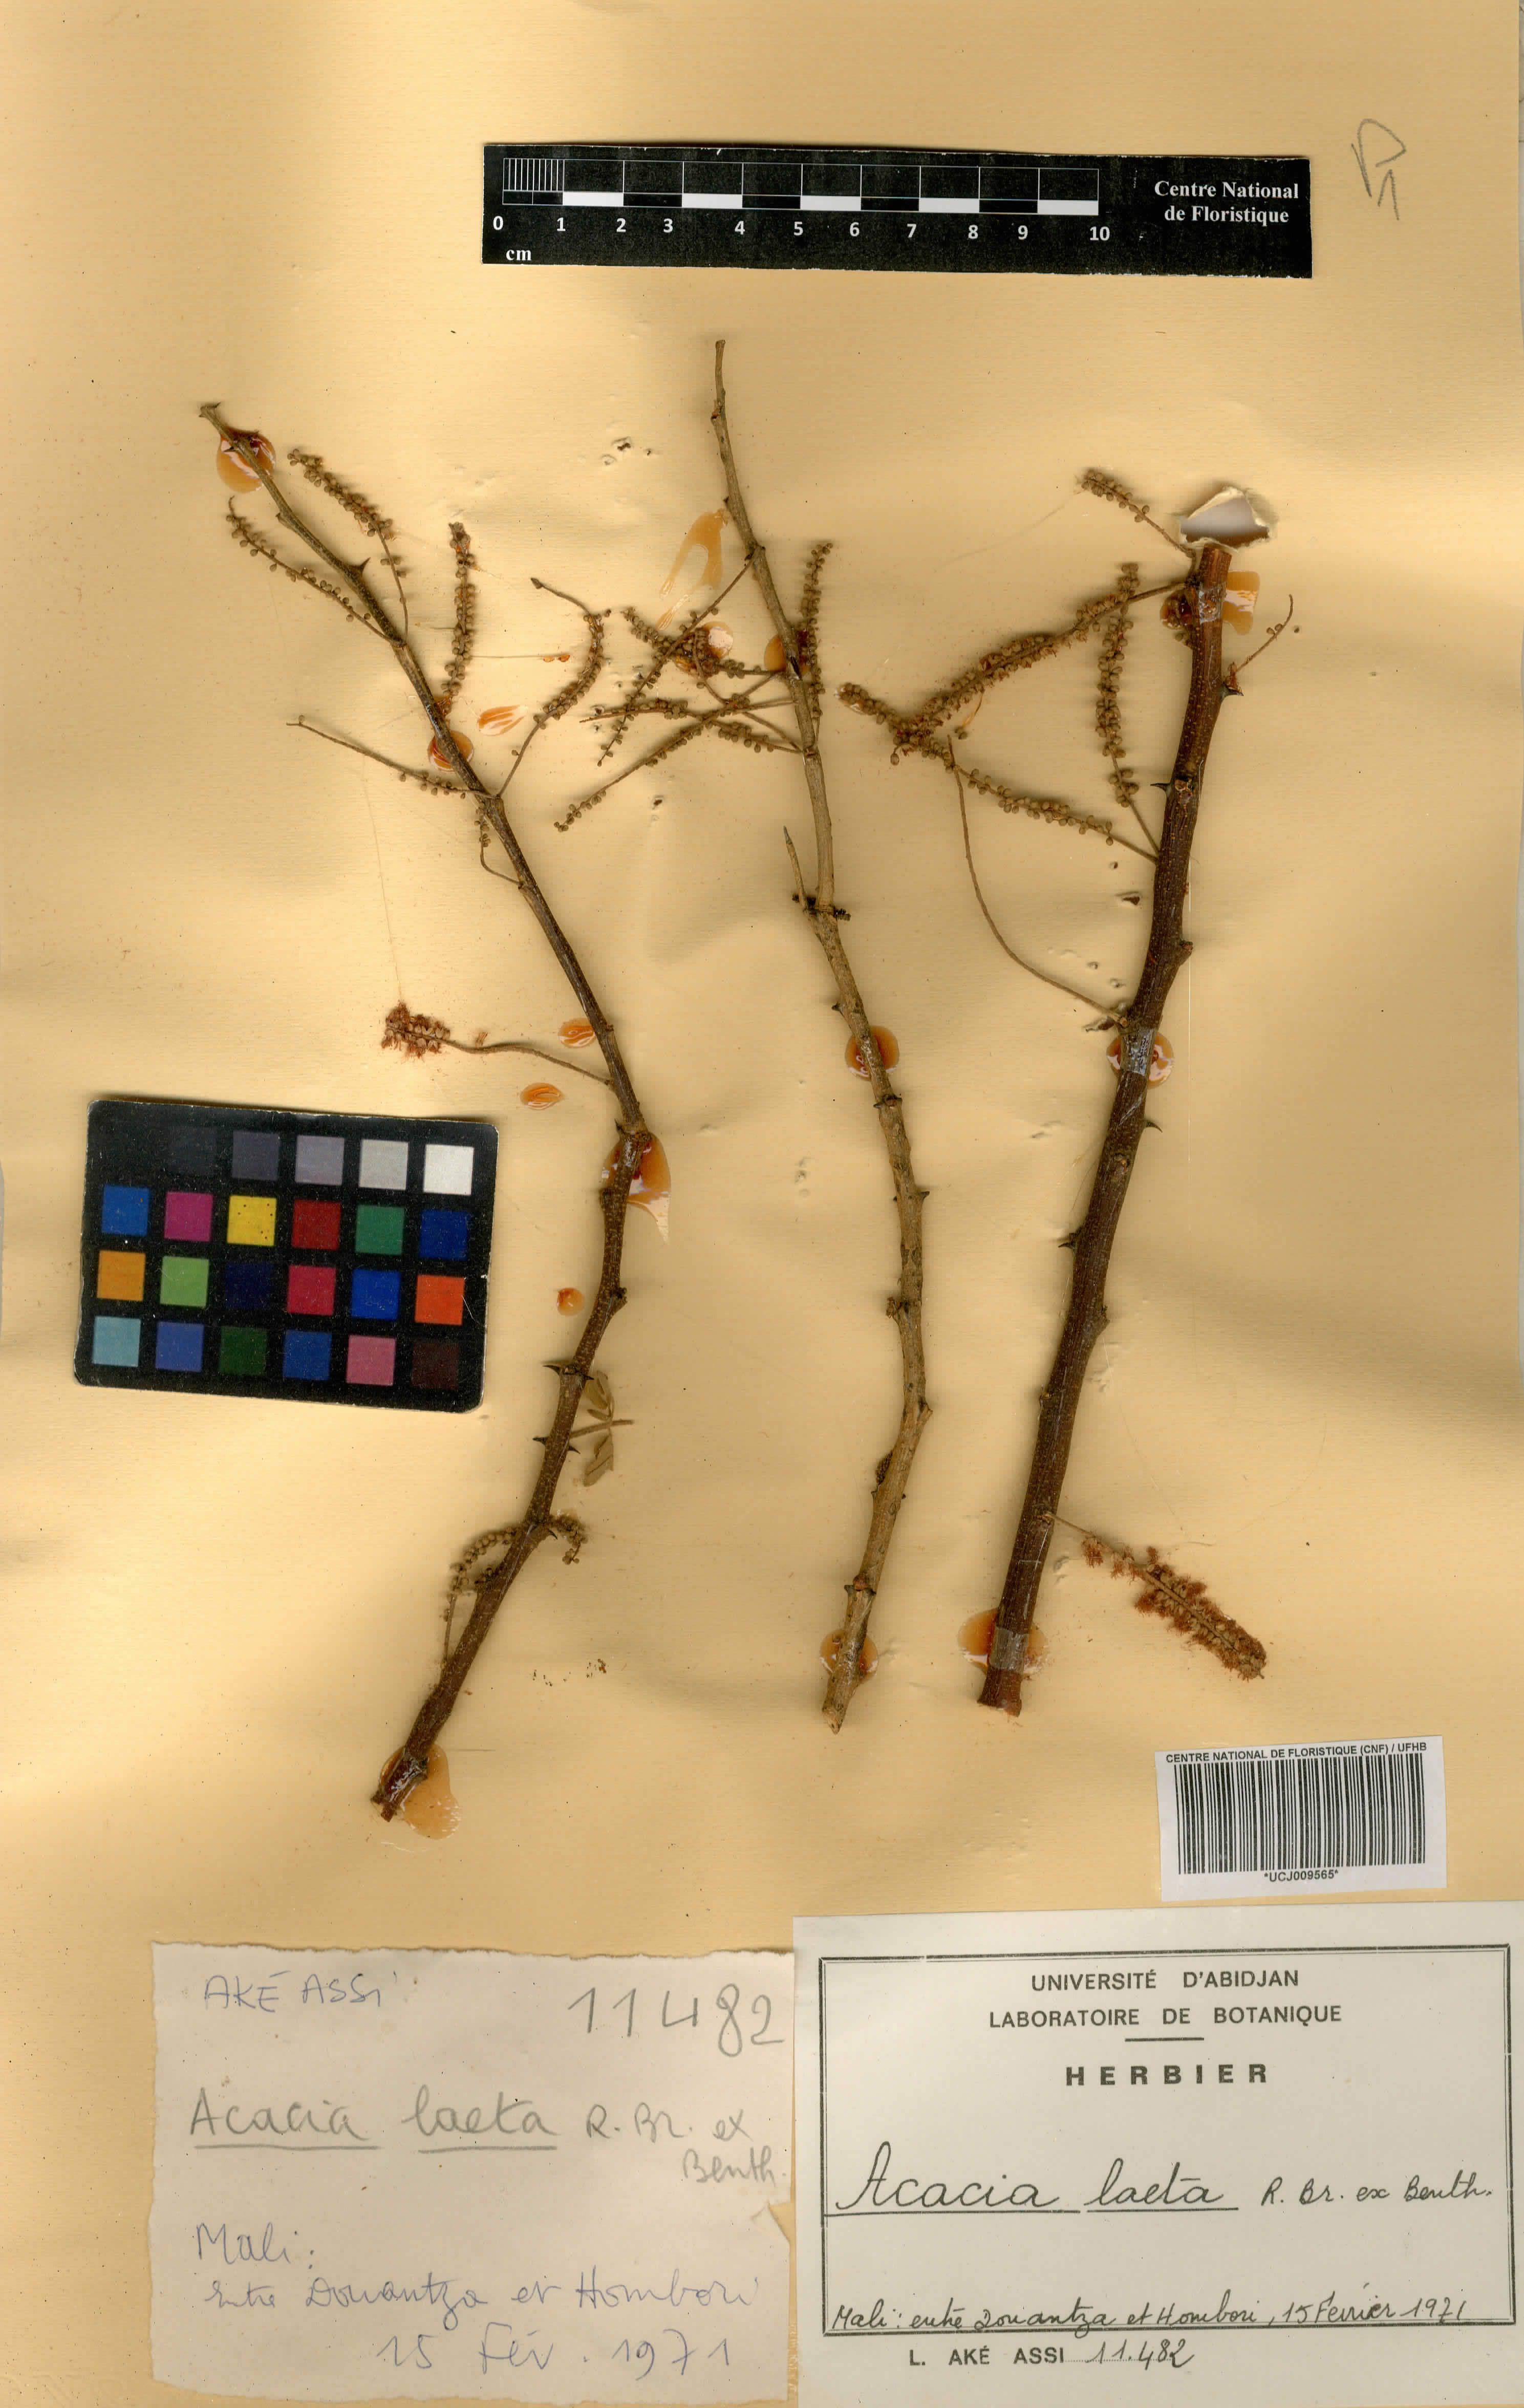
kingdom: Plantae
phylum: Tracheophyta
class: Magnoliopsida
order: Fabales
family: Fabaceae
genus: Senegalia
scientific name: Senegalia laeta
